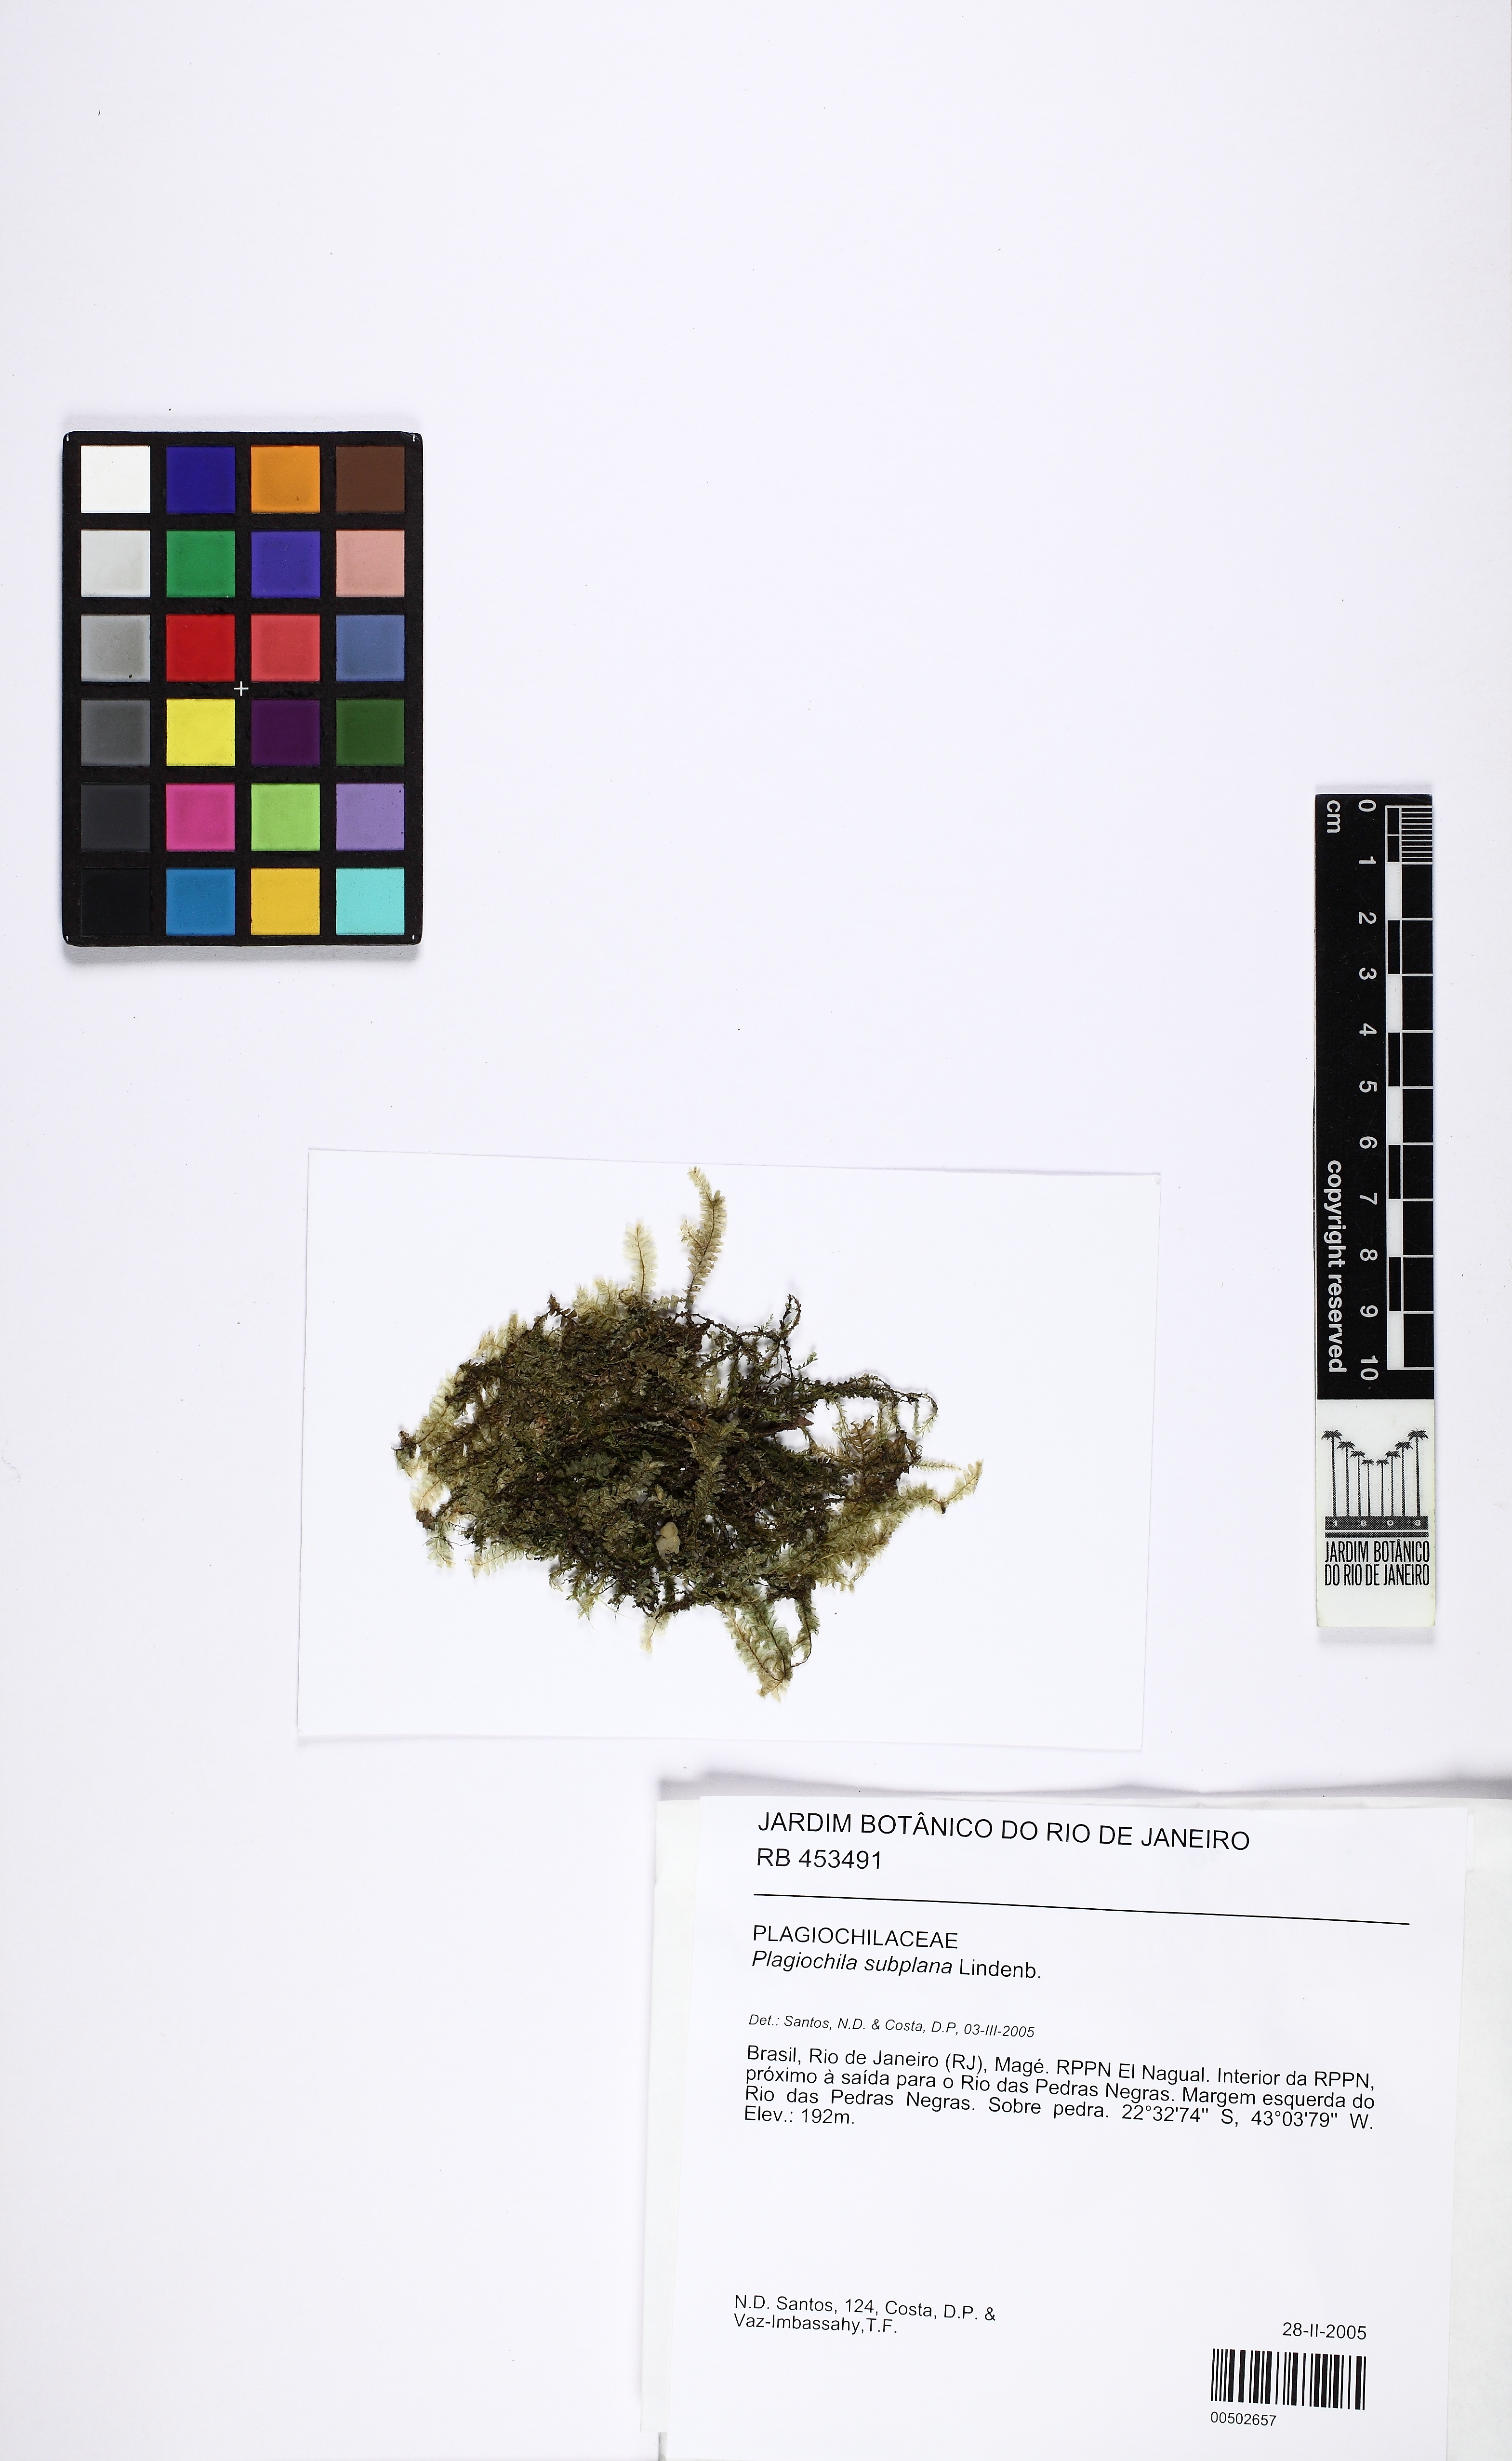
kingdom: Plantae
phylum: Marchantiophyta
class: Jungermanniopsida
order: Jungermanniales
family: Plagiochilaceae
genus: Plagiochila
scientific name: Plagiochila subplana
